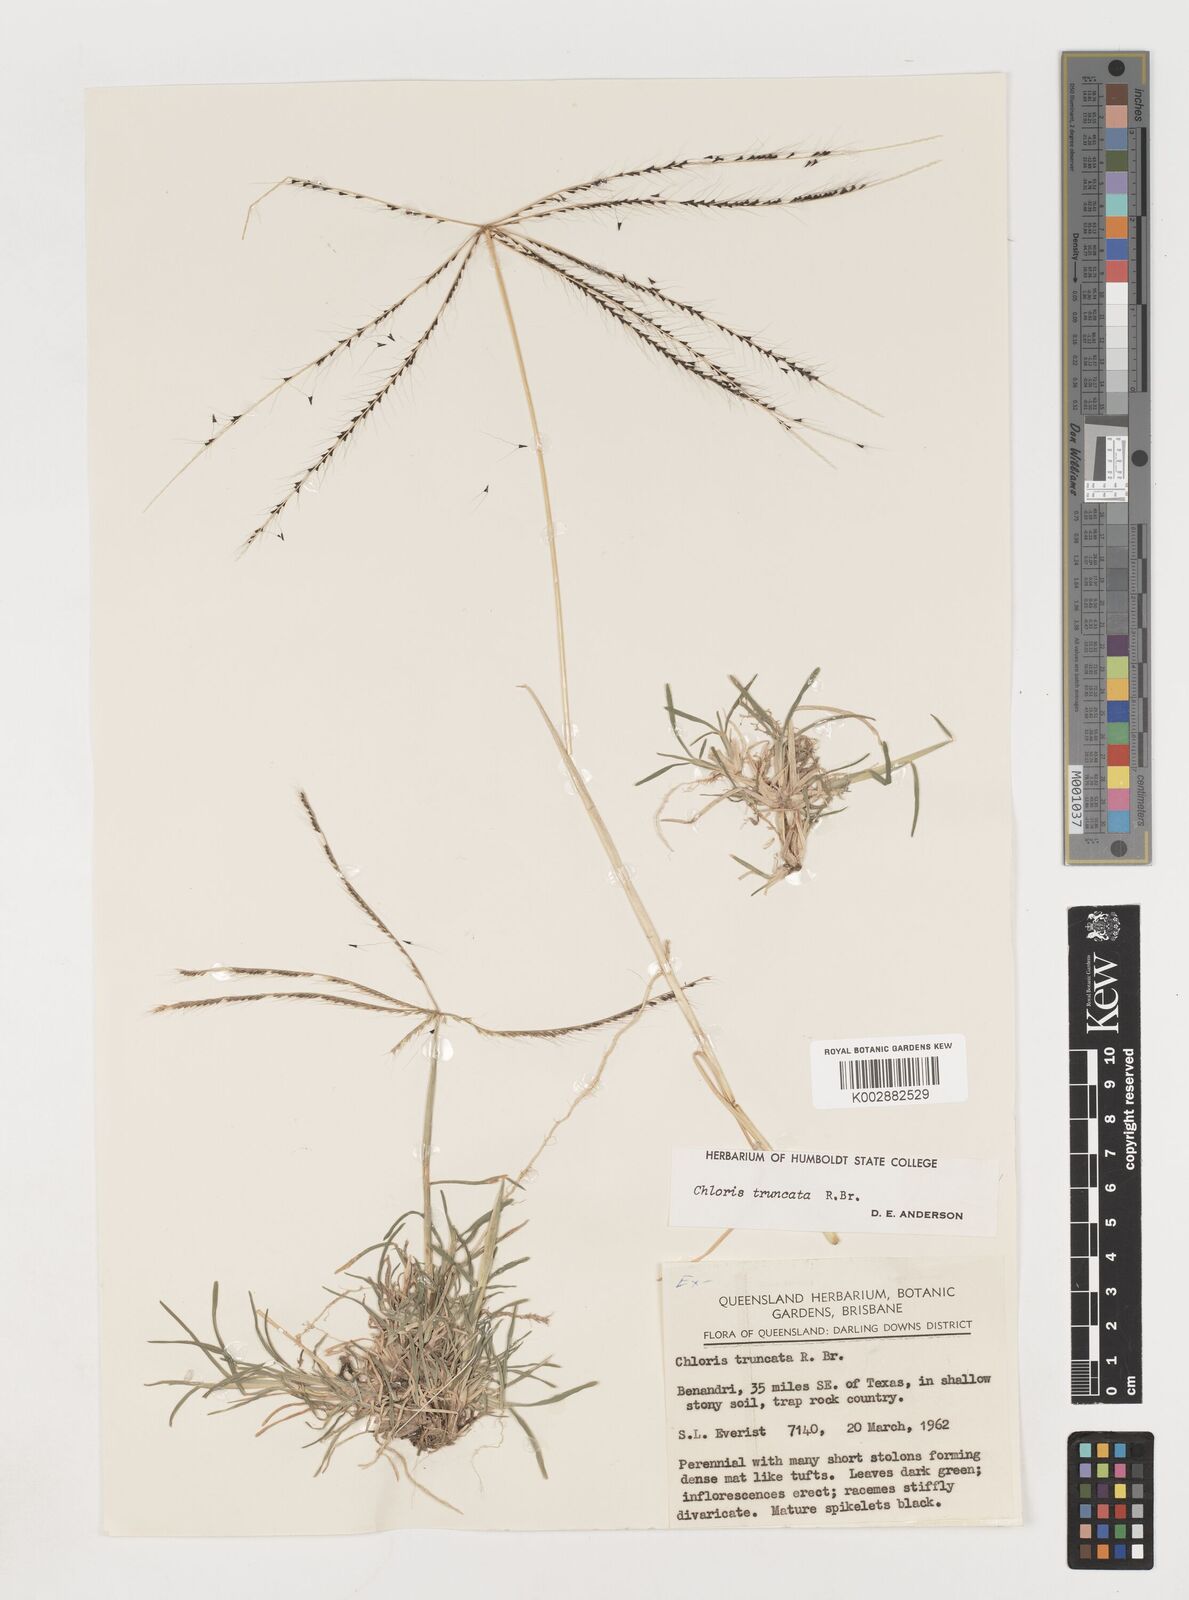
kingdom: Plantae
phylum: Tracheophyta
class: Liliopsida
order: Poales
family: Poaceae
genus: Chloris
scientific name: Chloris truncata
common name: Windmill-grass
